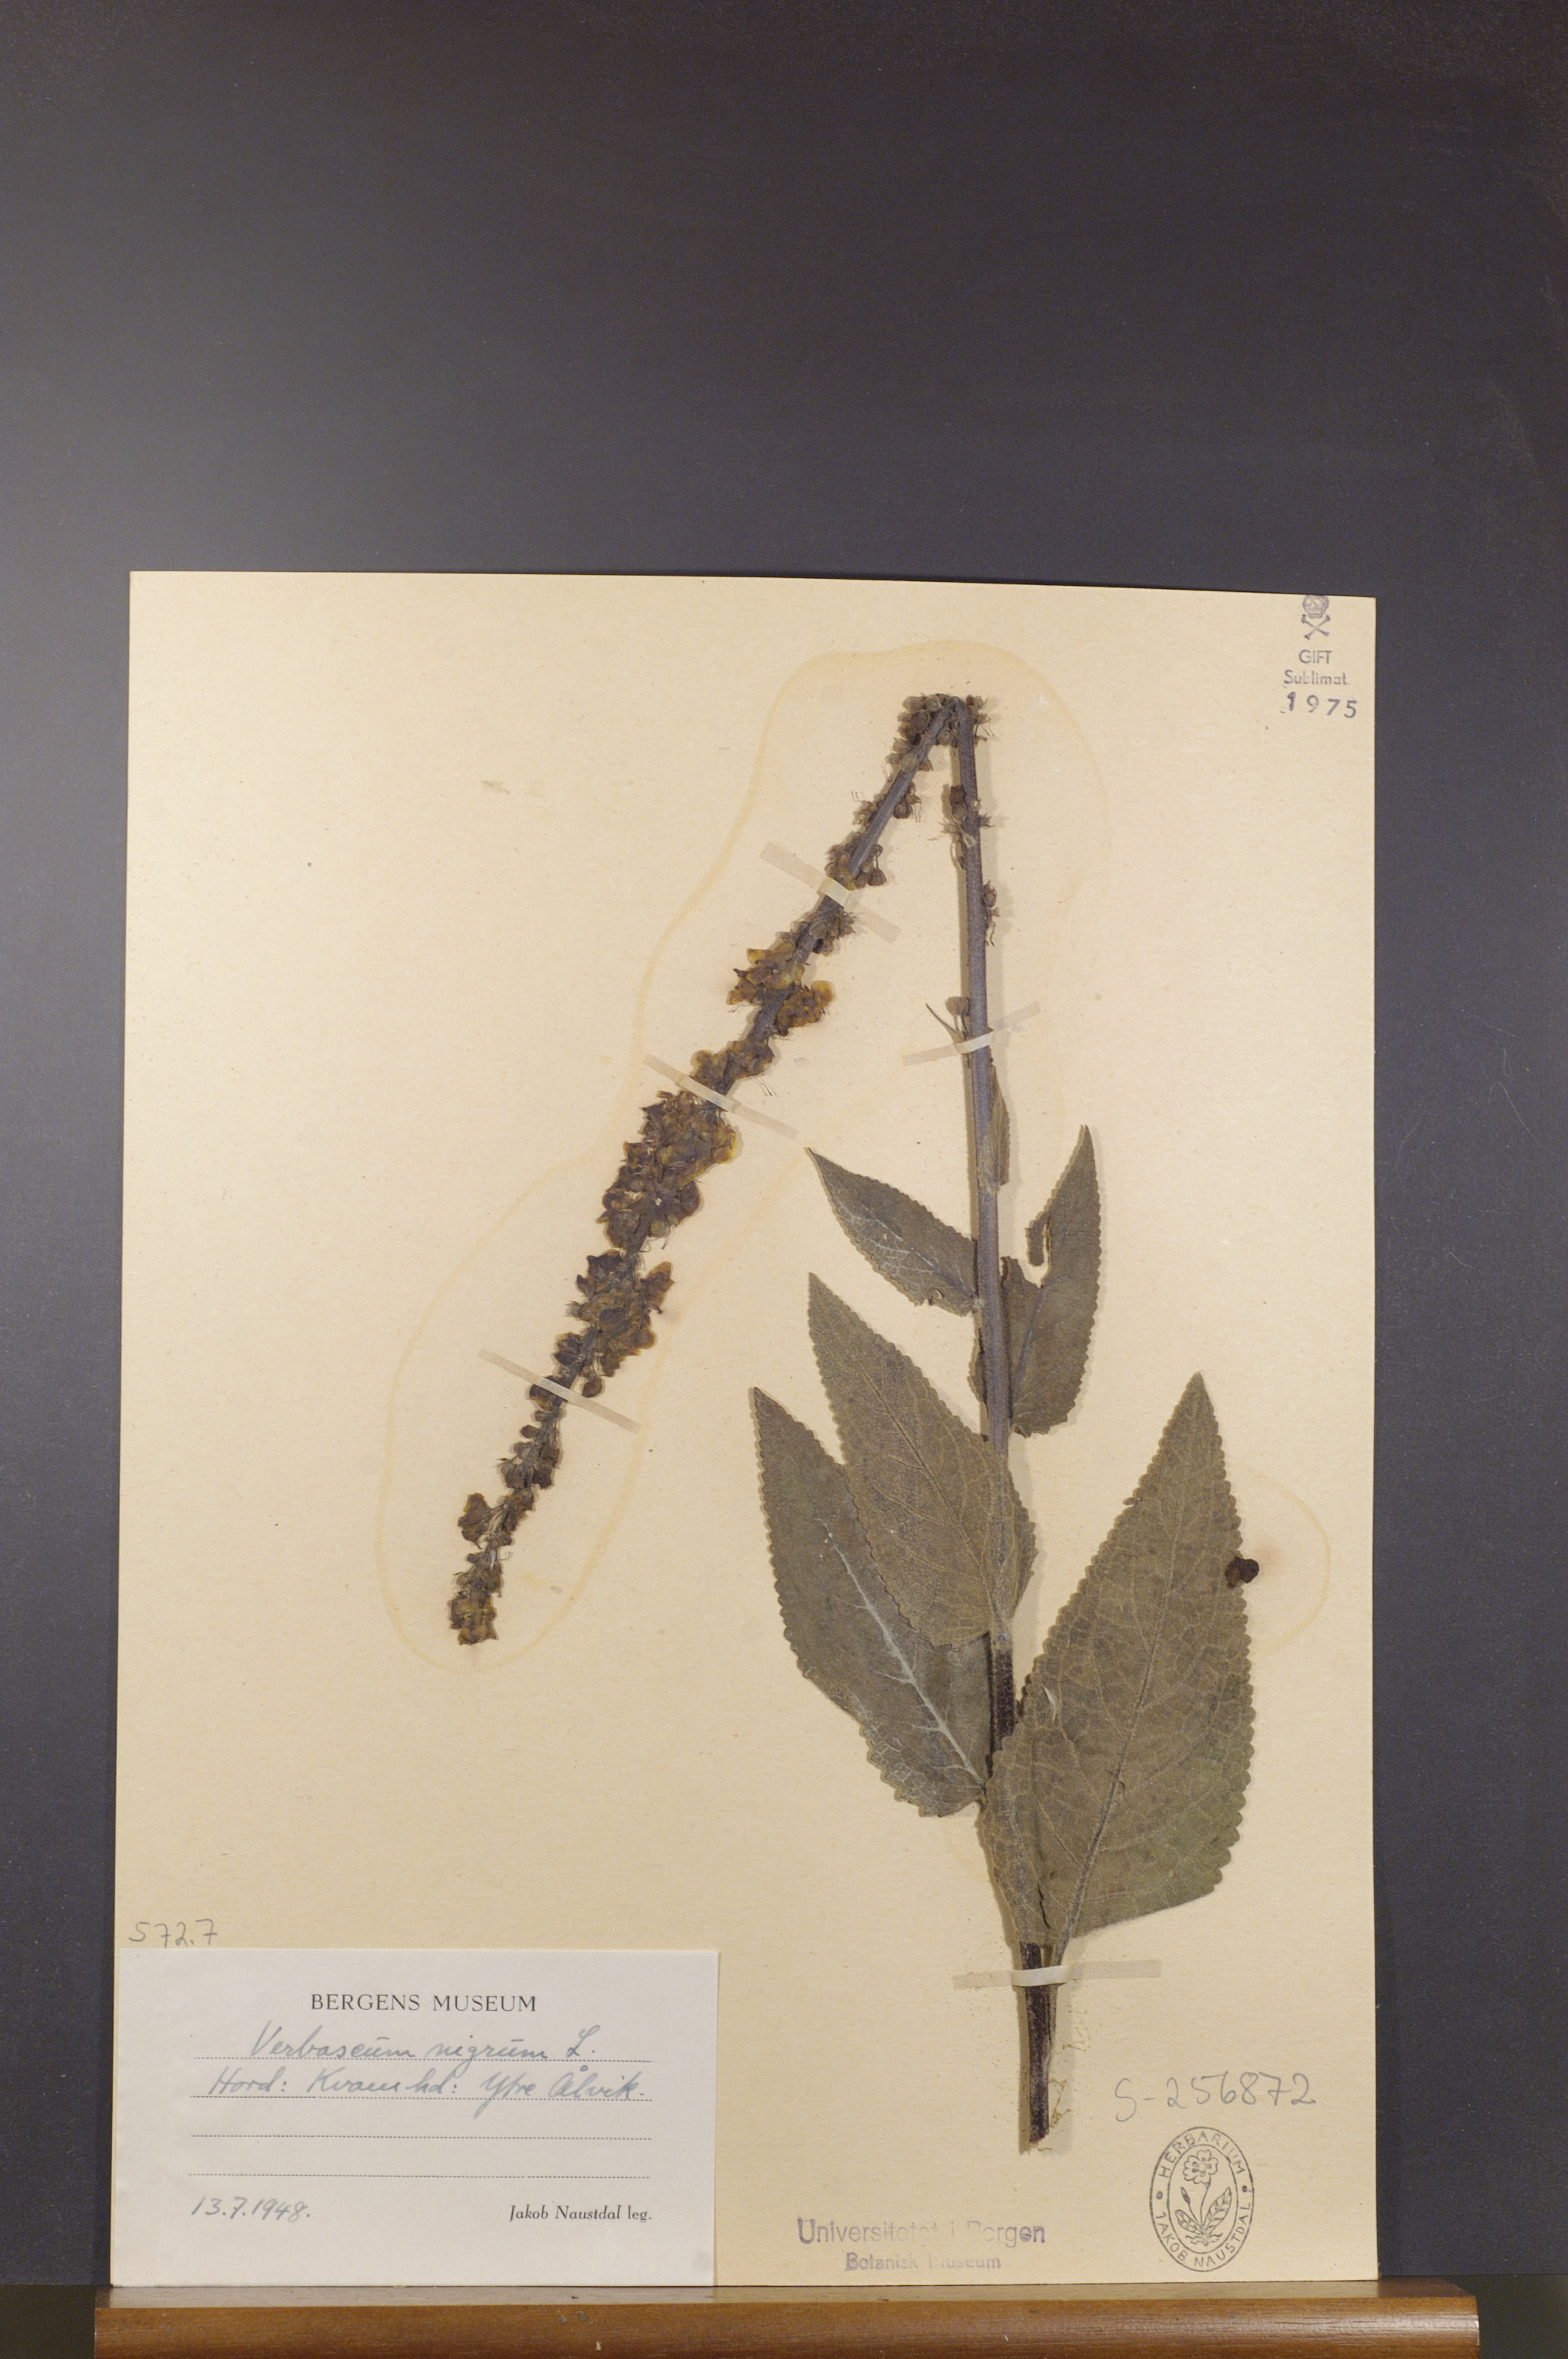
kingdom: Plantae
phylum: Tracheophyta
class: Magnoliopsida
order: Lamiales
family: Scrophulariaceae
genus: Verbascum
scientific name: Verbascum nigrum
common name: Dark mullein
